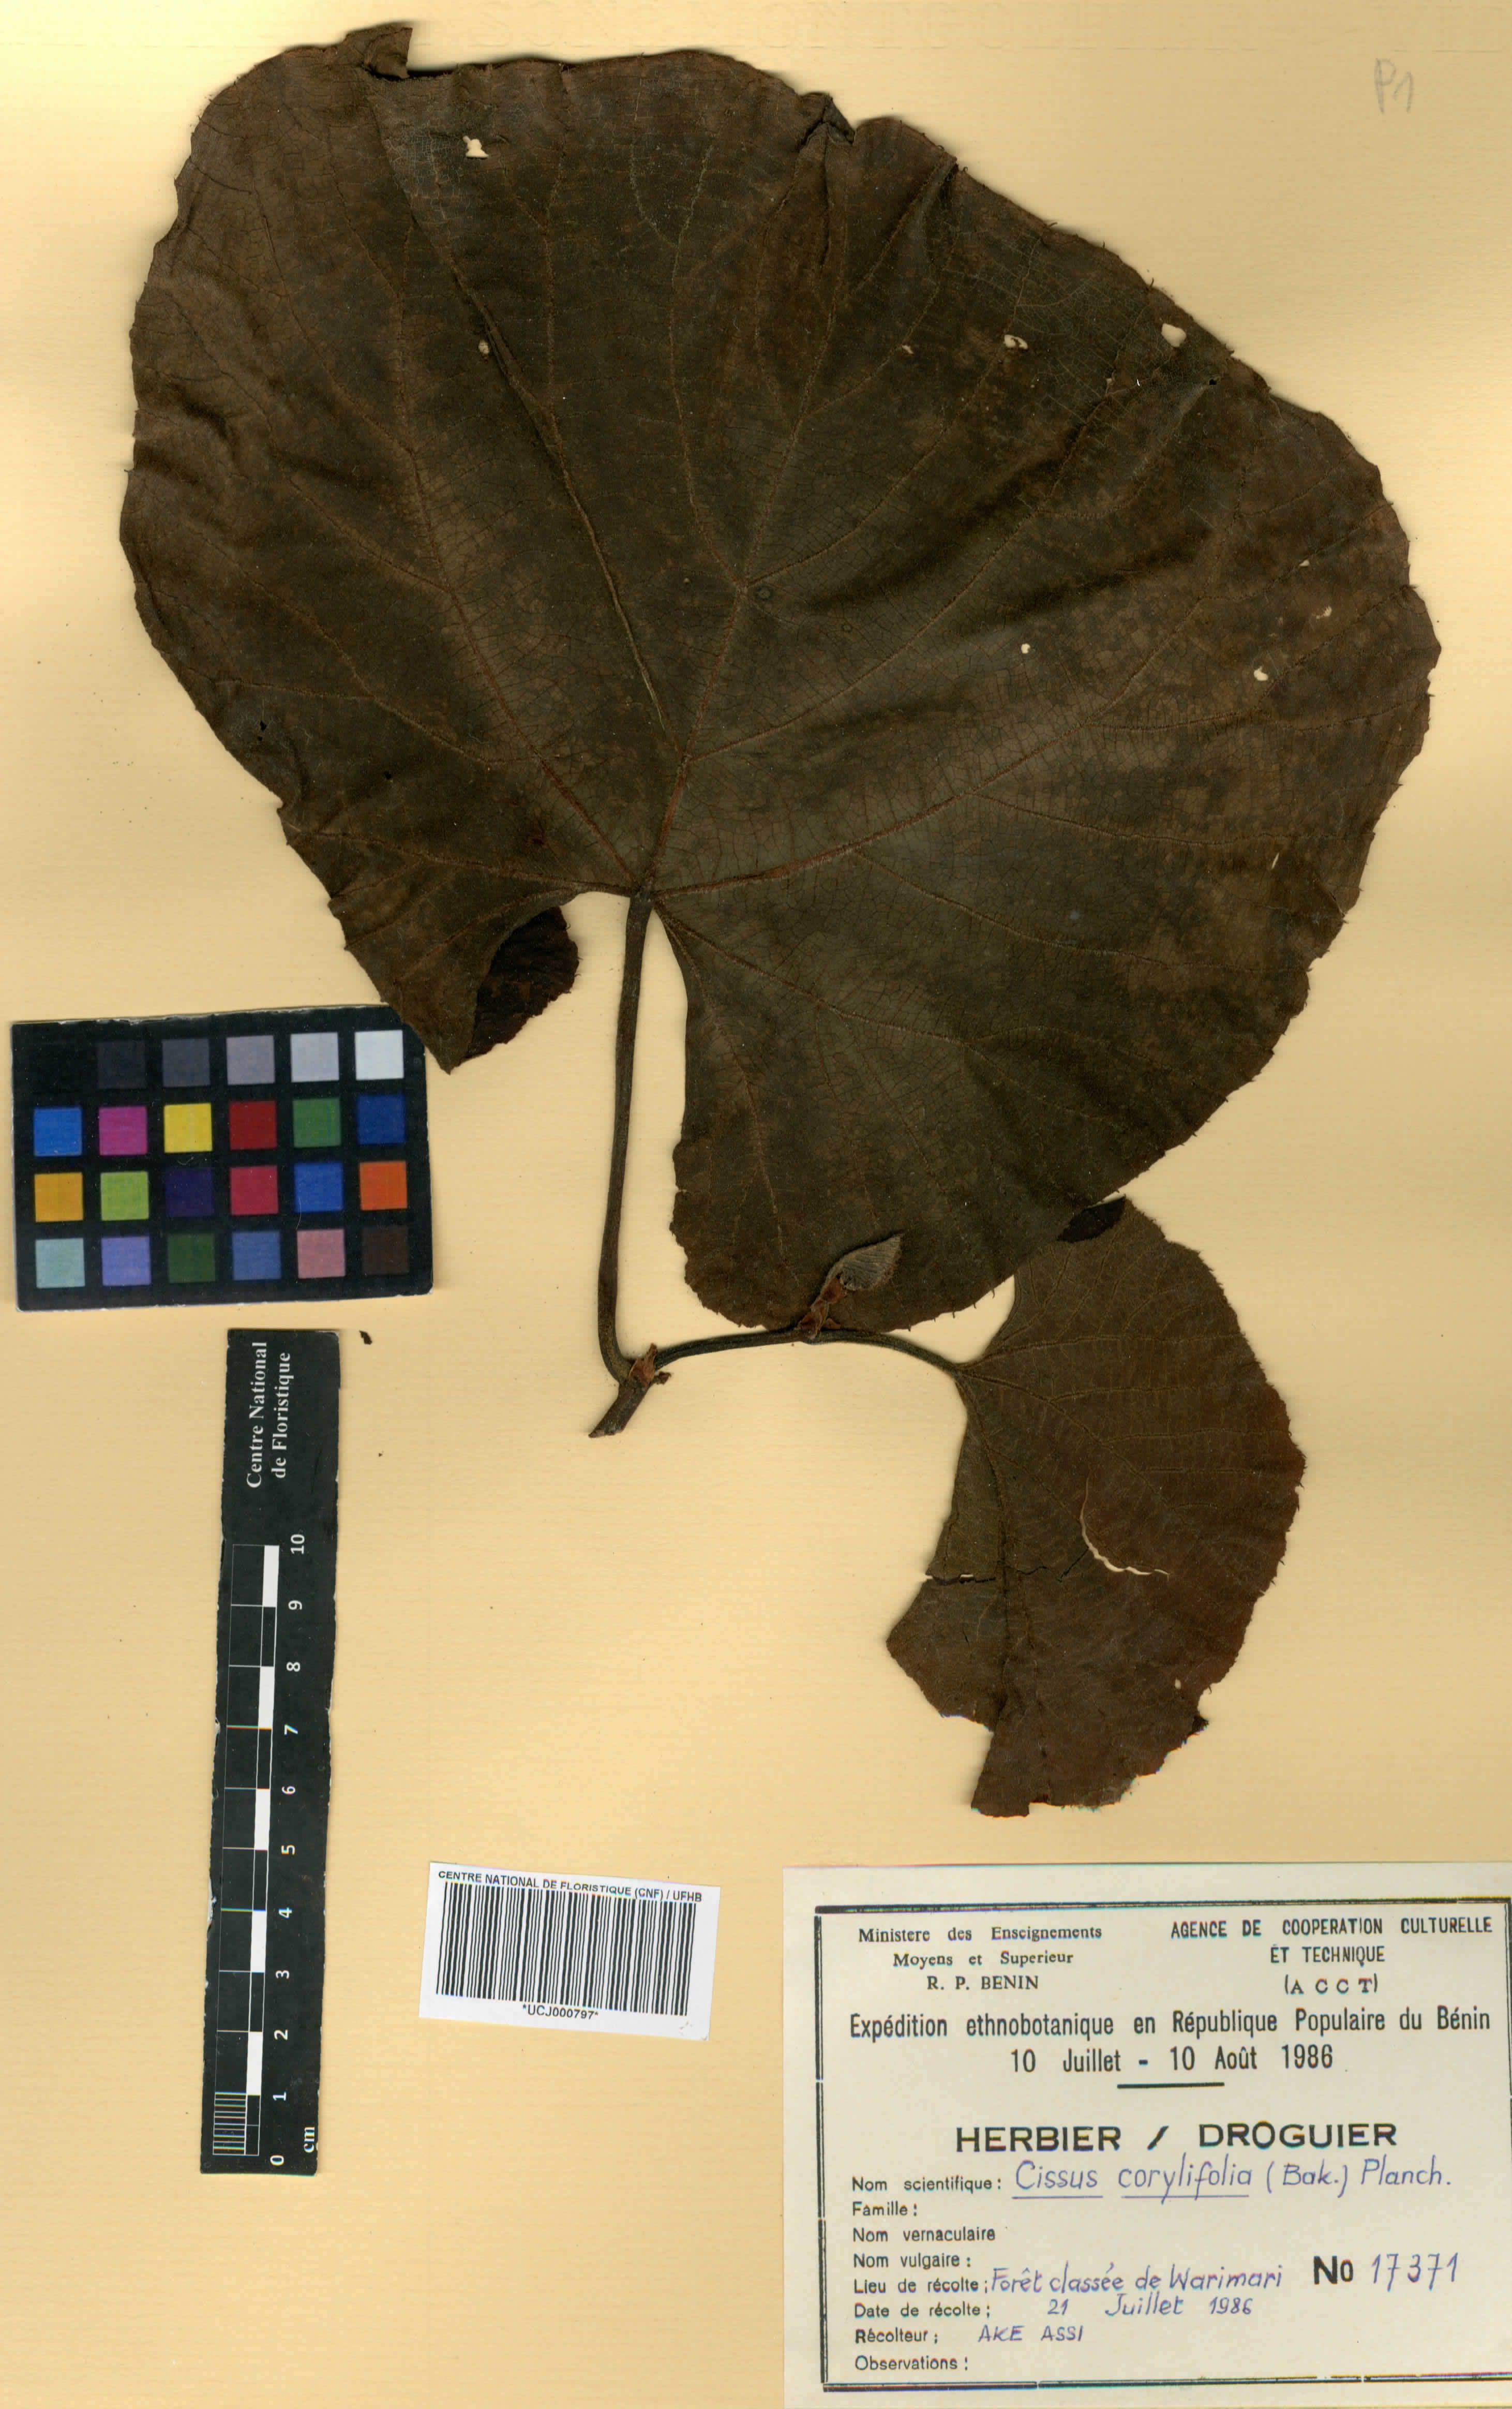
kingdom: Plantae
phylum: Tracheophyta
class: Magnoliopsida
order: Vitales
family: Vitaceae
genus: Cissus
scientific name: Cissus corylifolia
